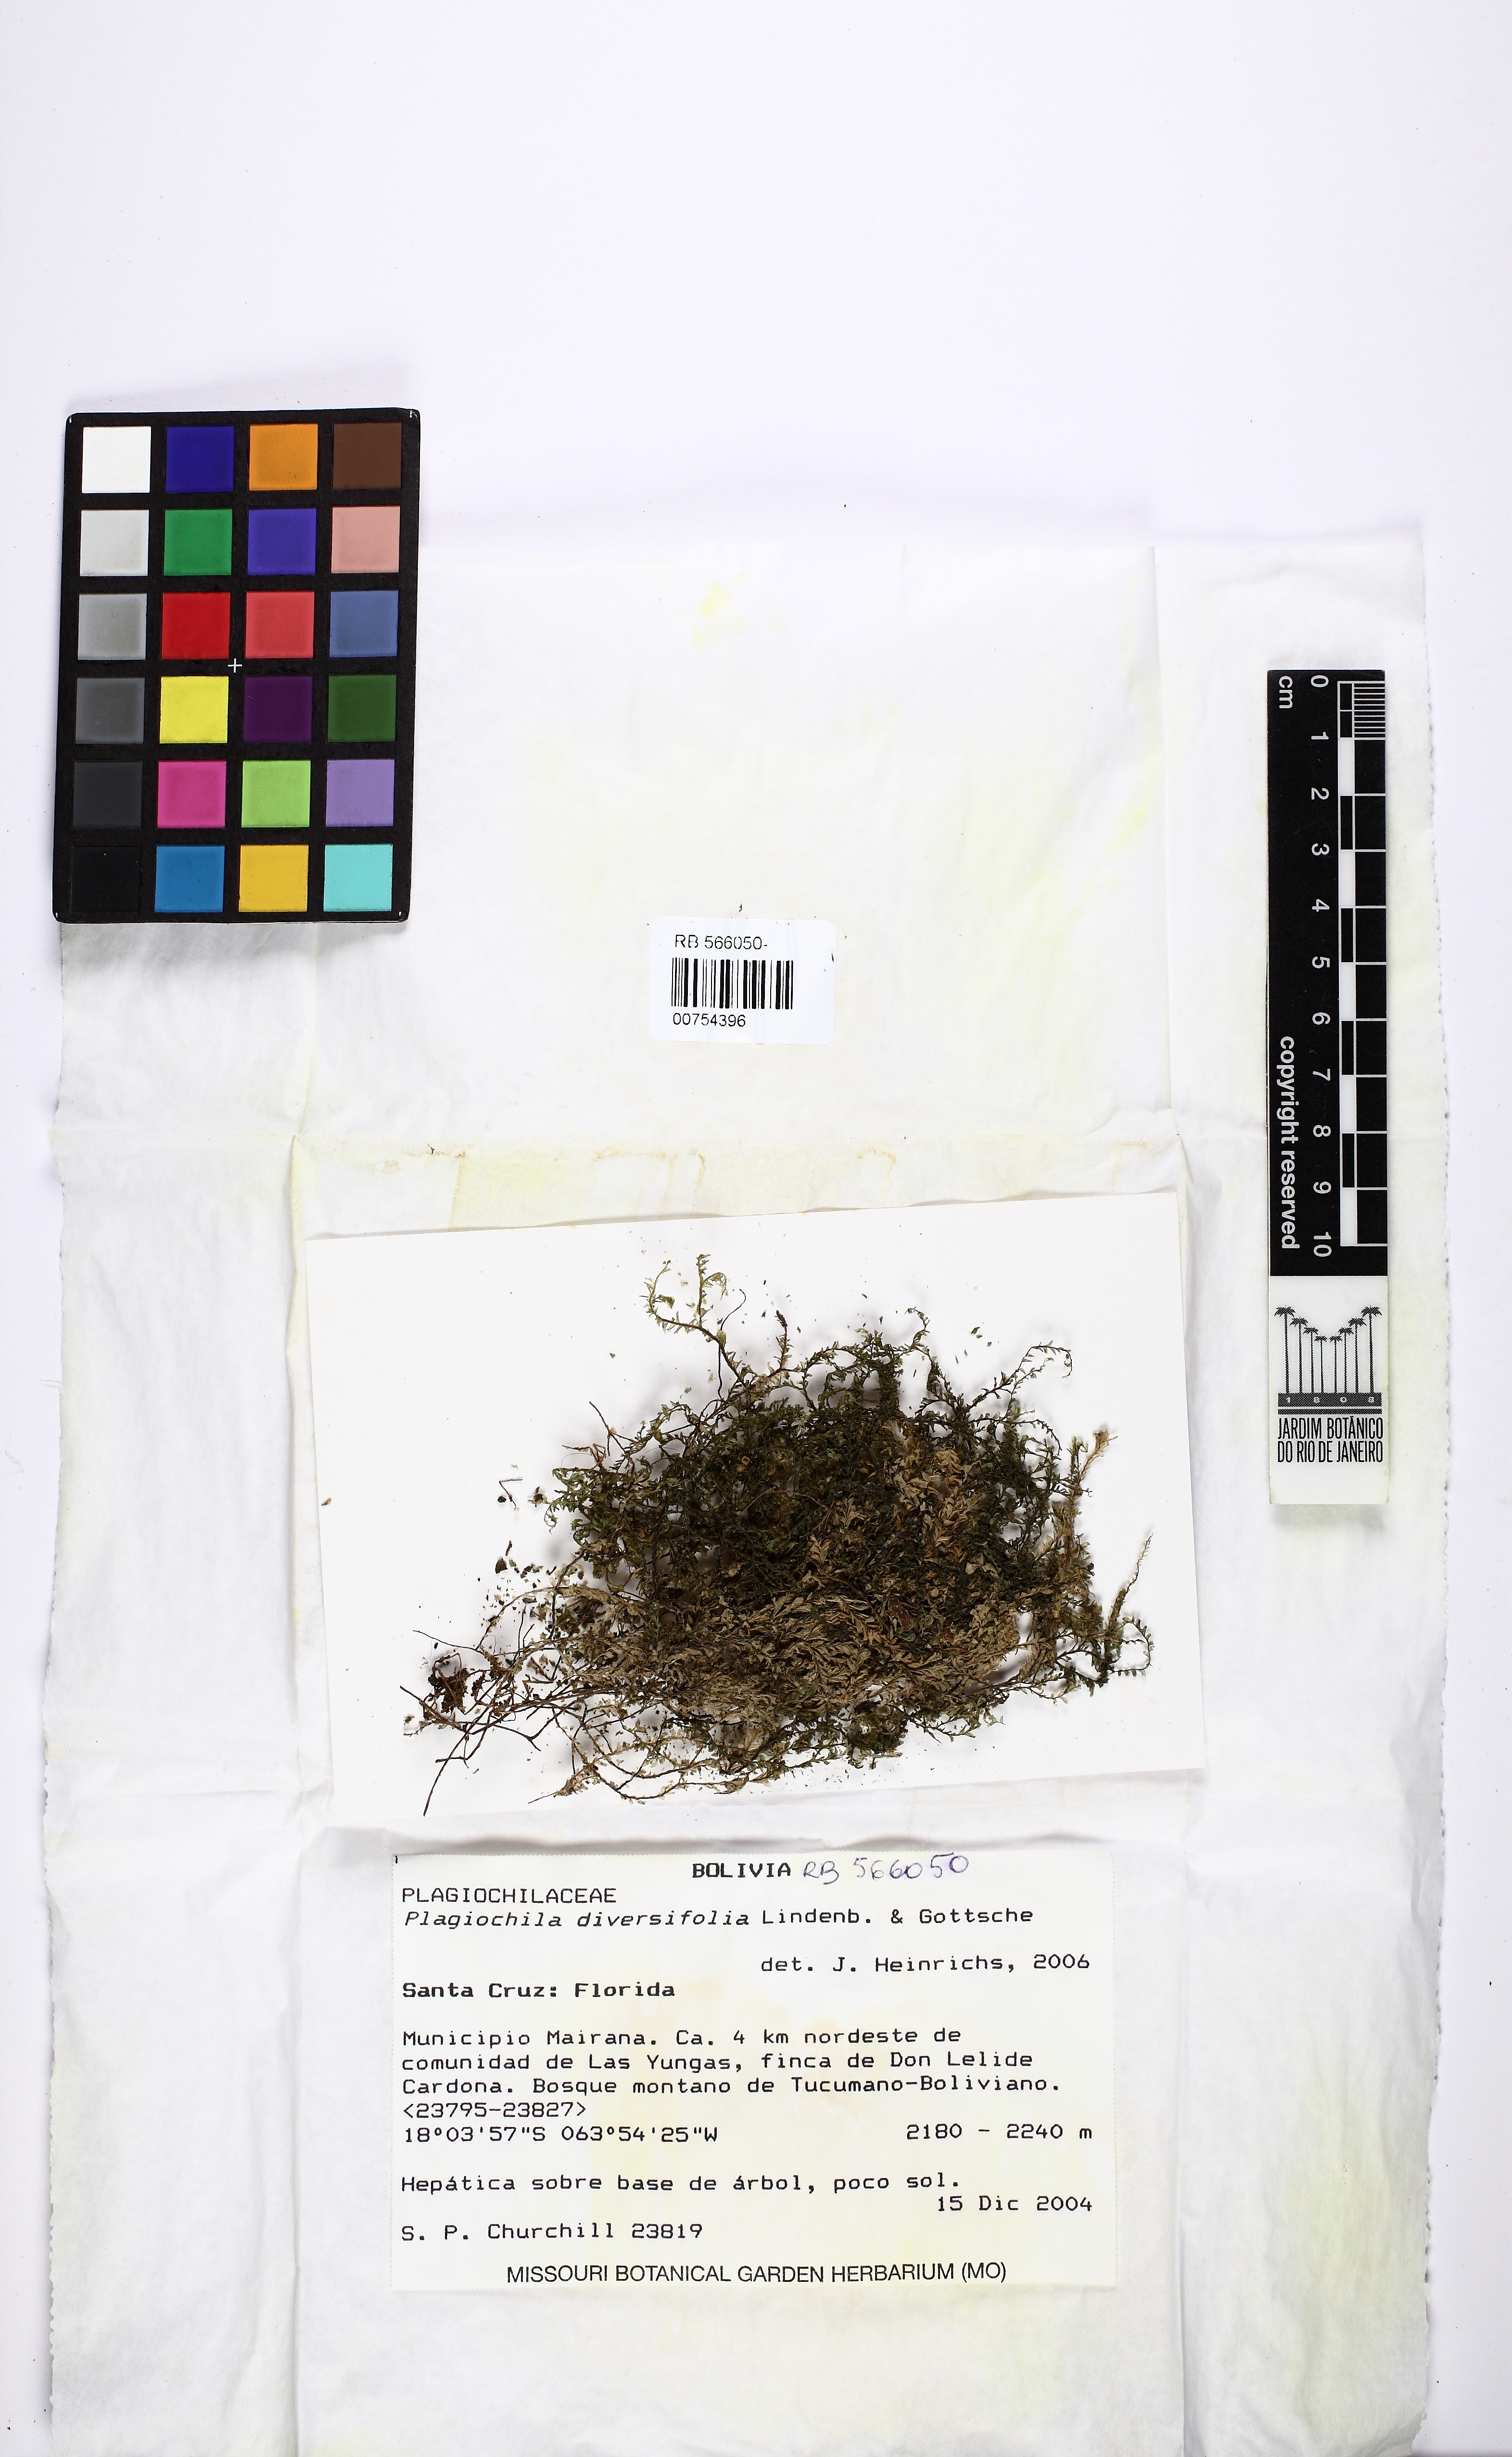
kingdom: Plantae
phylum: Marchantiophyta
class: Jungermanniopsida
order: Jungermanniales
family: Plagiochilaceae
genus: Plagiochila
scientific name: Plagiochila diversifolia
